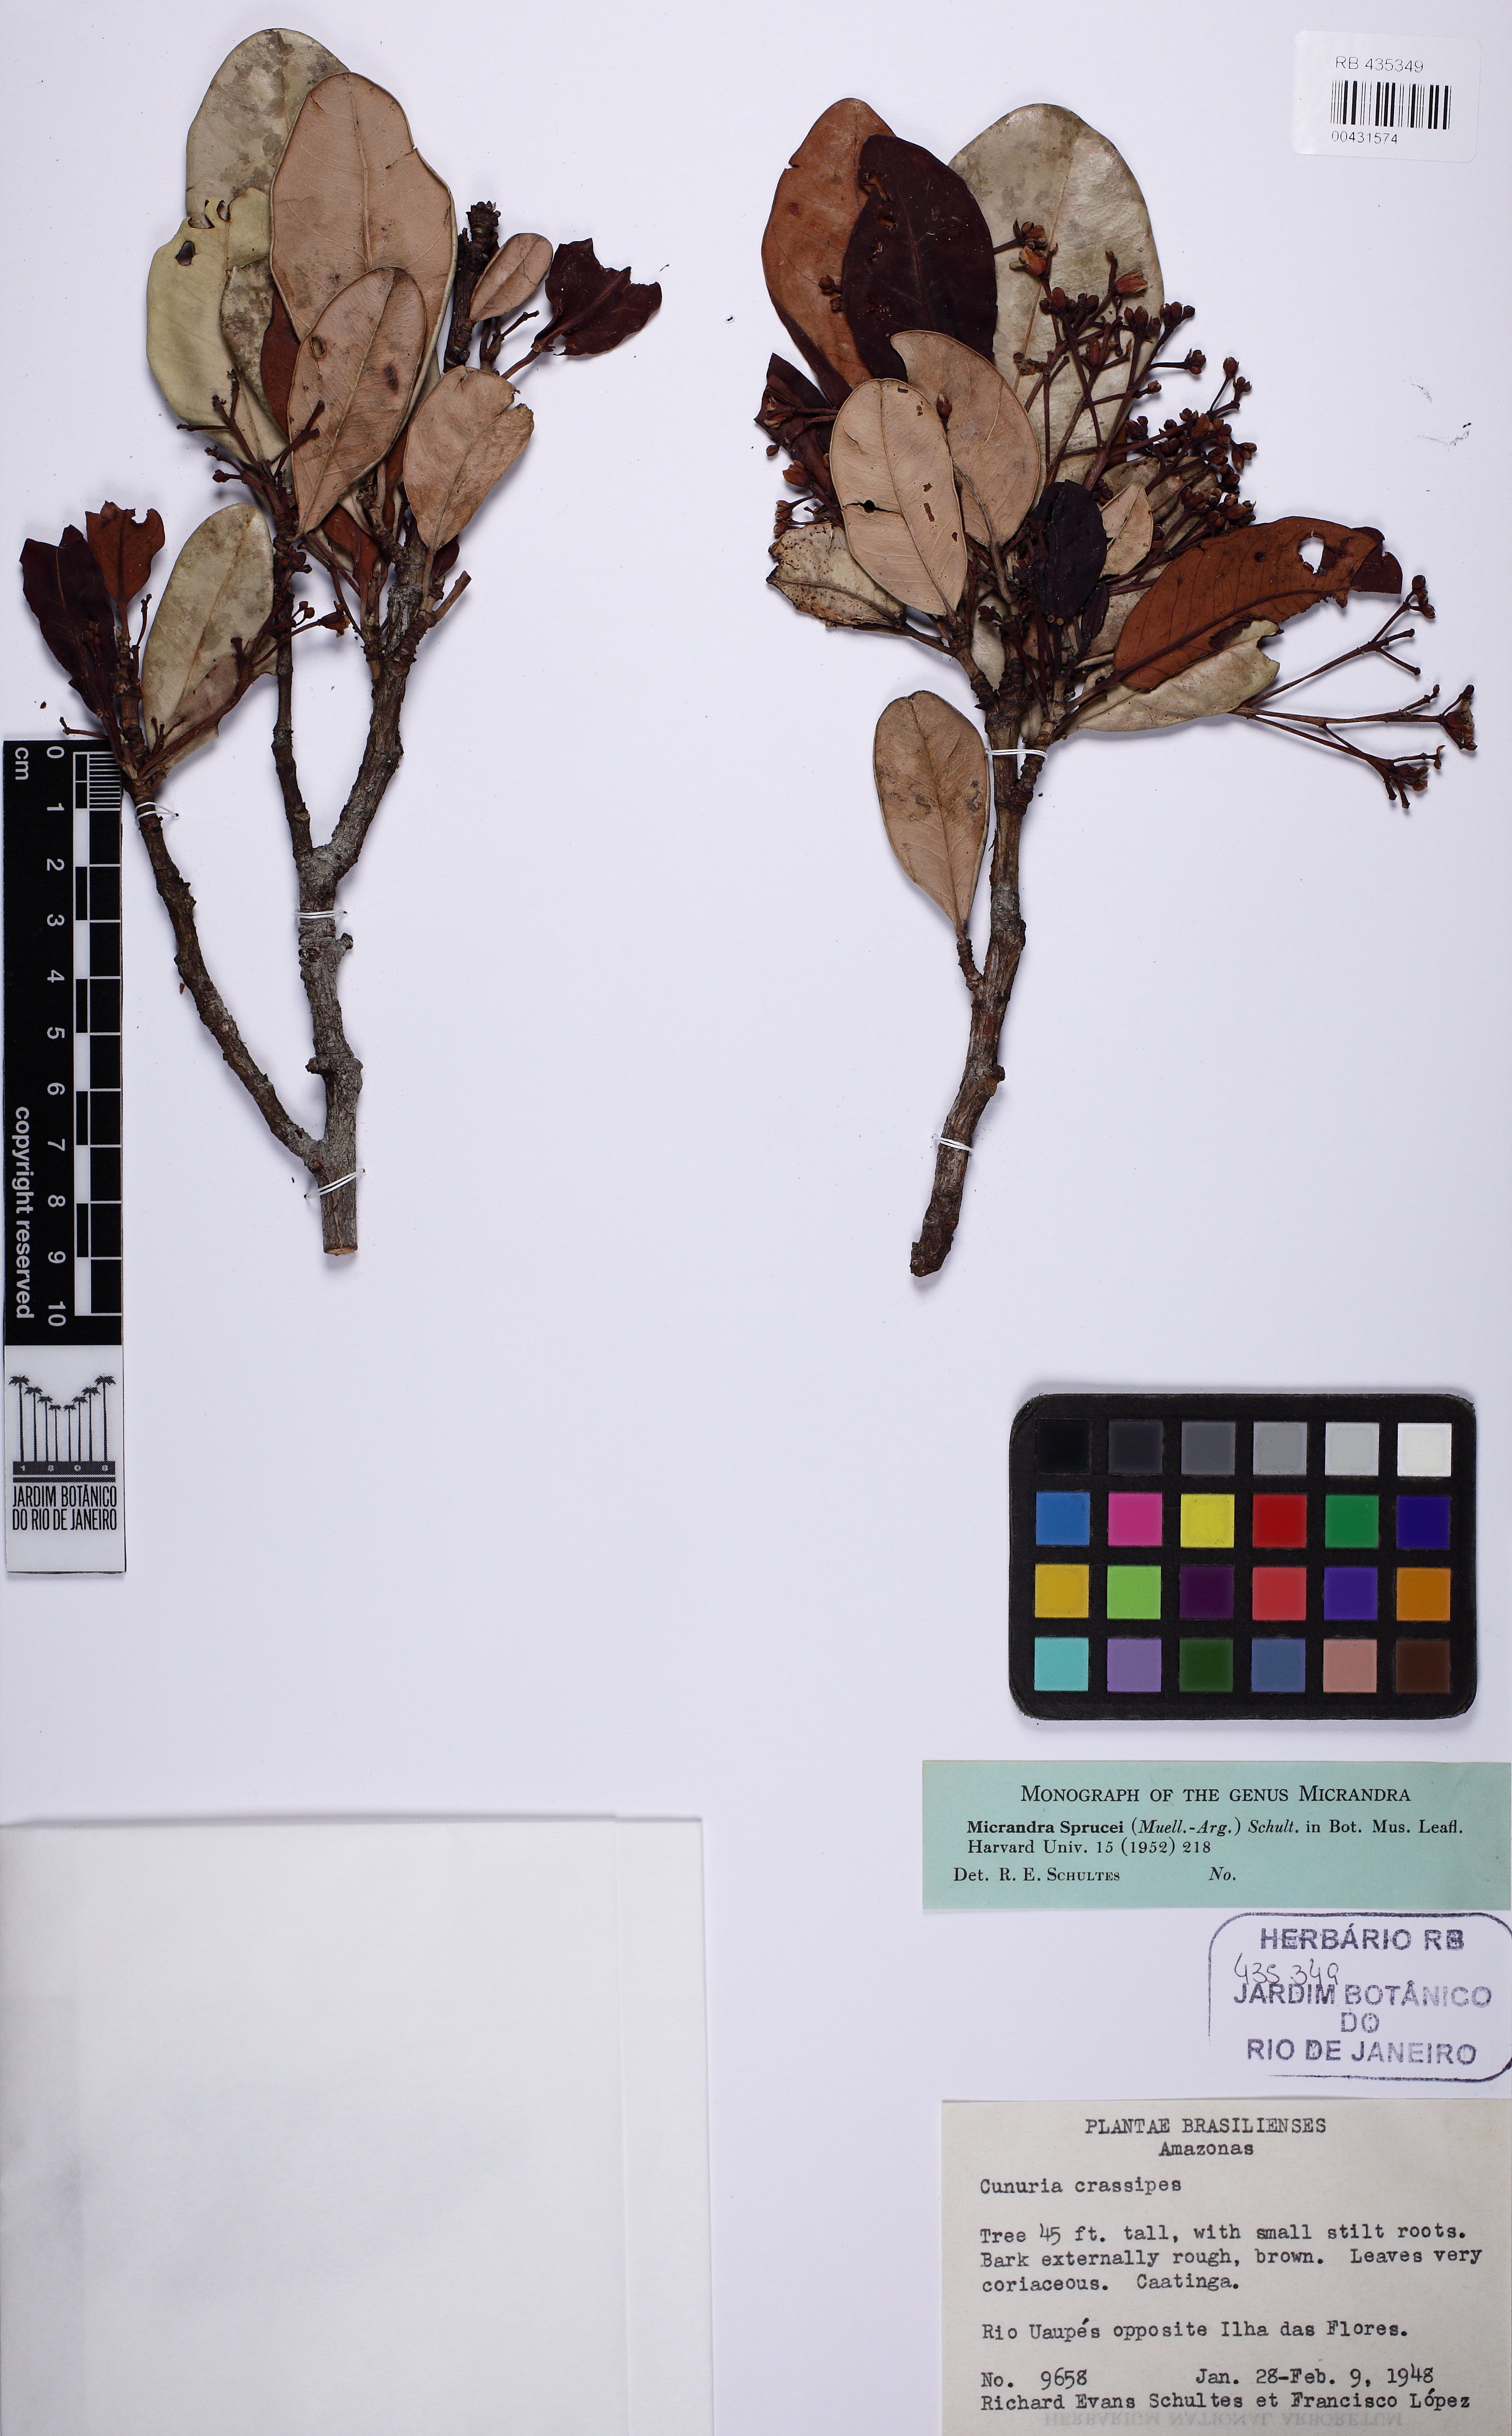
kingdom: Plantae
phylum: Tracheophyta
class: Magnoliopsida
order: Malpighiales
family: Euphorbiaceae
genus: Micrandra
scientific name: Micrandra sprucei
